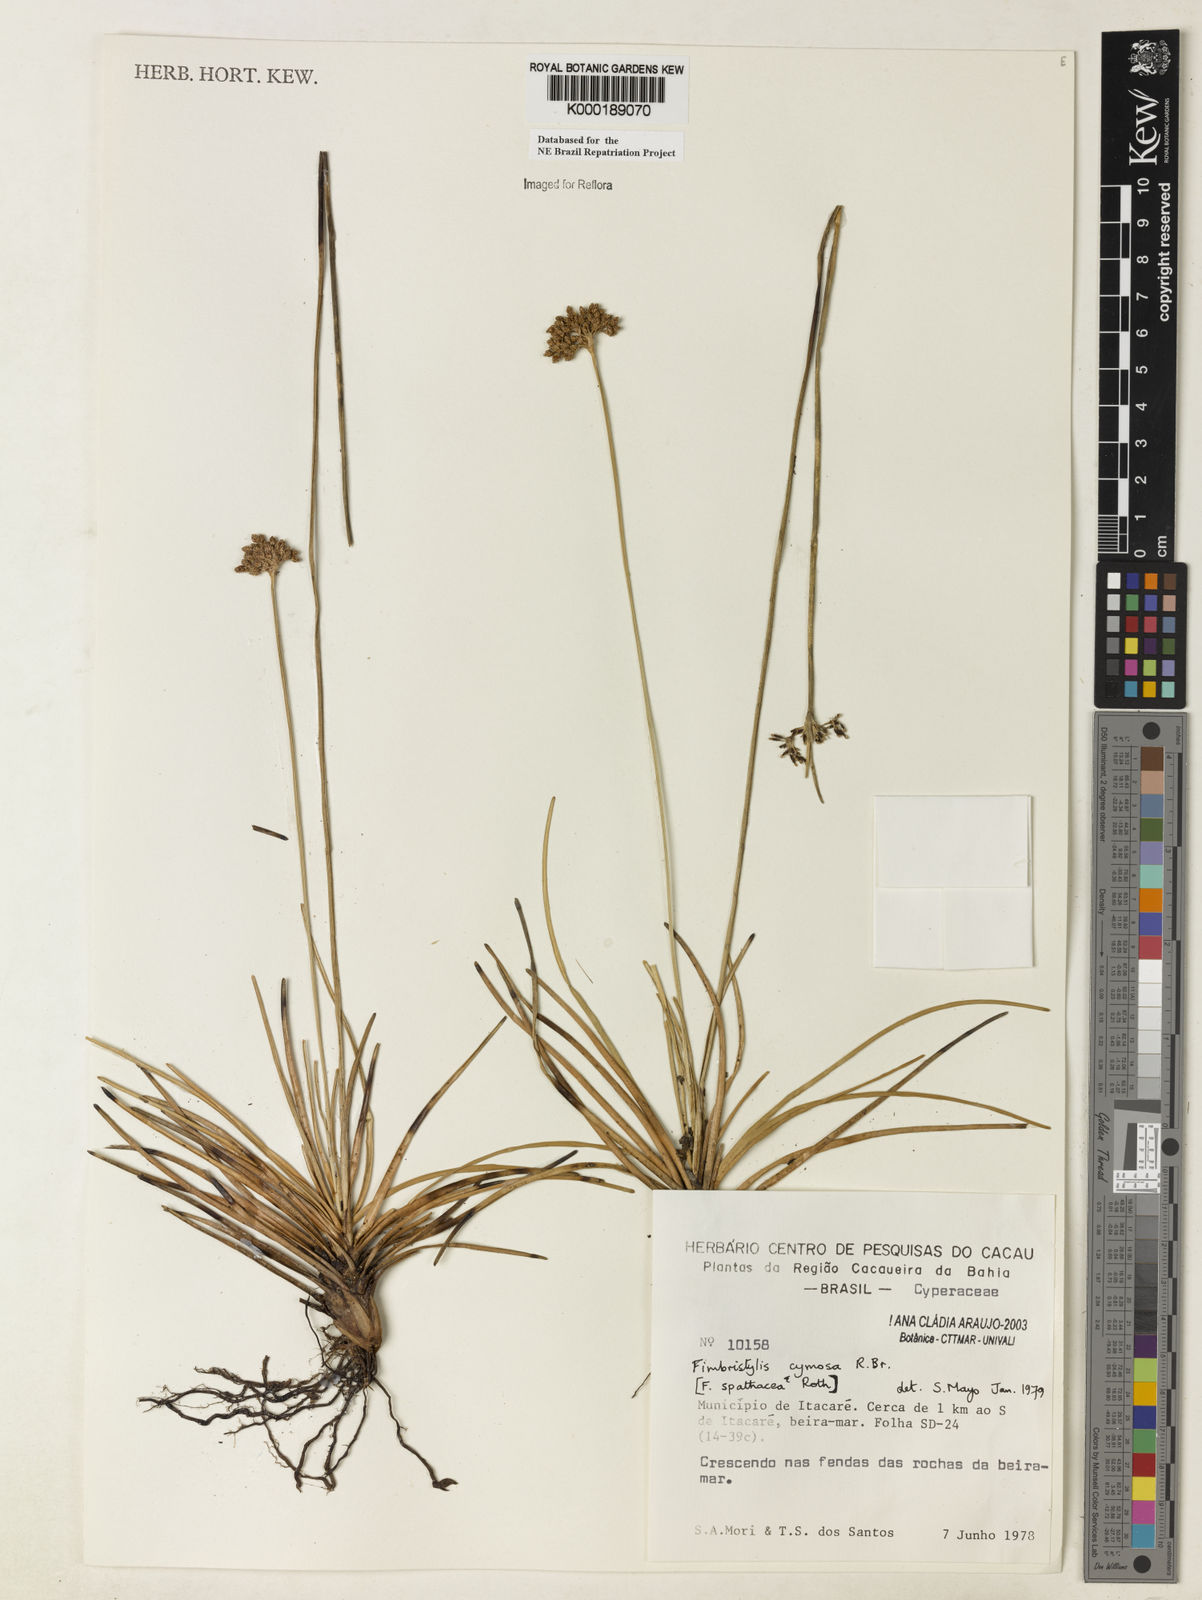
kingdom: Plantae
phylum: Tracheophyta
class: Liliopsida
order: Poales
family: Cyperaceae
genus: Fimbristylis
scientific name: Fimbristylis cymosa
